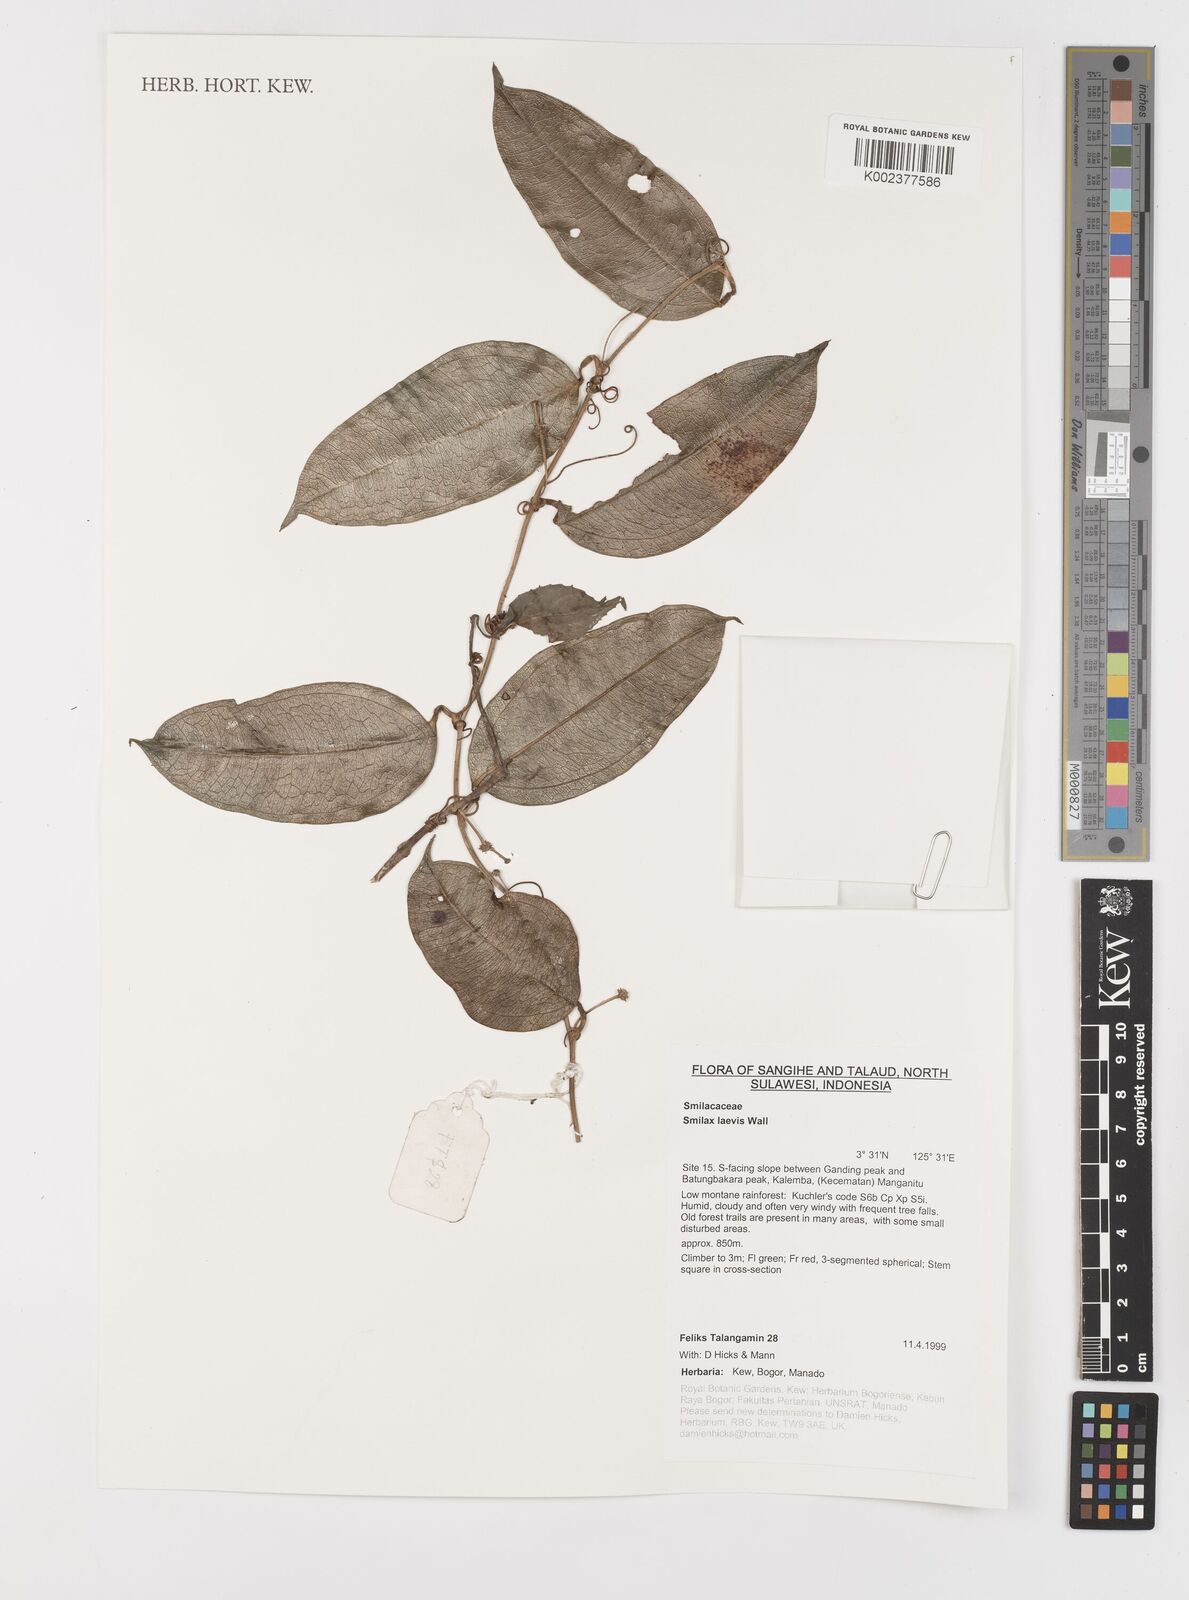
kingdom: Plantae
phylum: Tracheophyta
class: Liliopsida
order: Liliales
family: Smilacaceae
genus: Smilax
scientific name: Smilax laevis
